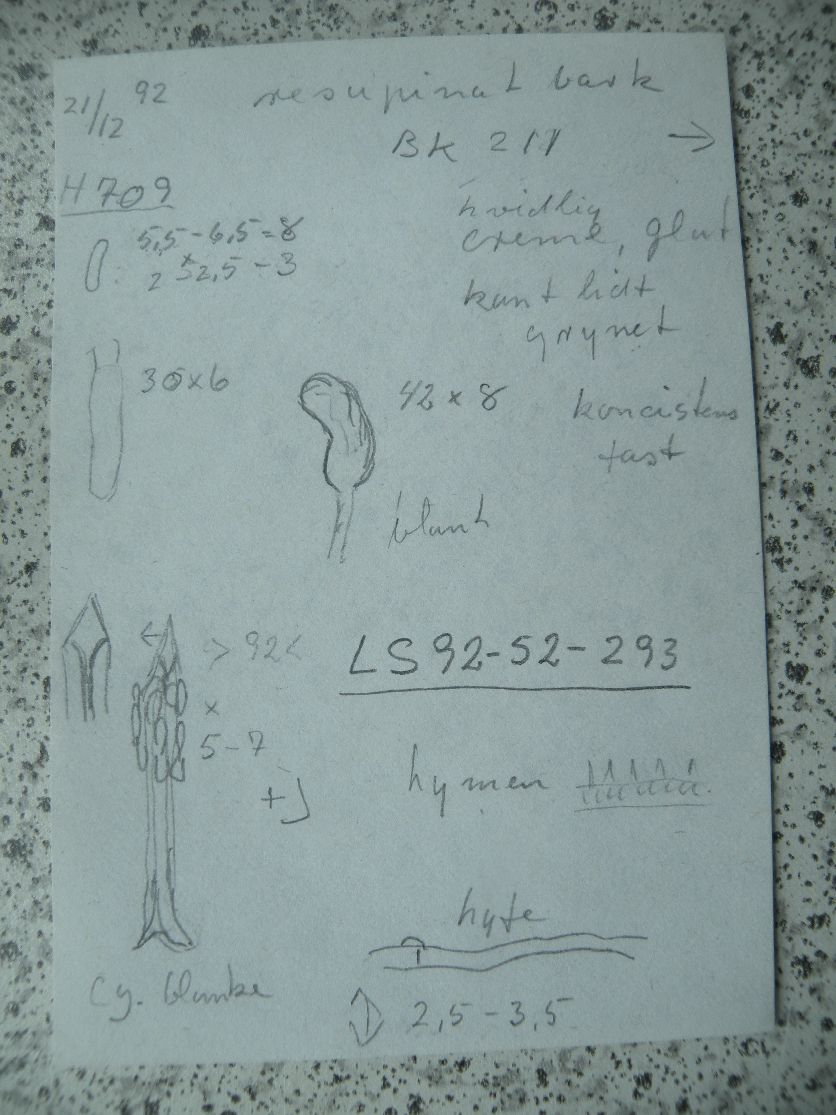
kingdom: Fungi
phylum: Basidiomycota
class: Agaricomycetes
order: Hymenochaetales
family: Hymenochaetaceae
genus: Tubulicrinis
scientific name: Tubulicrinis subulatus
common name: spids nålehinde
